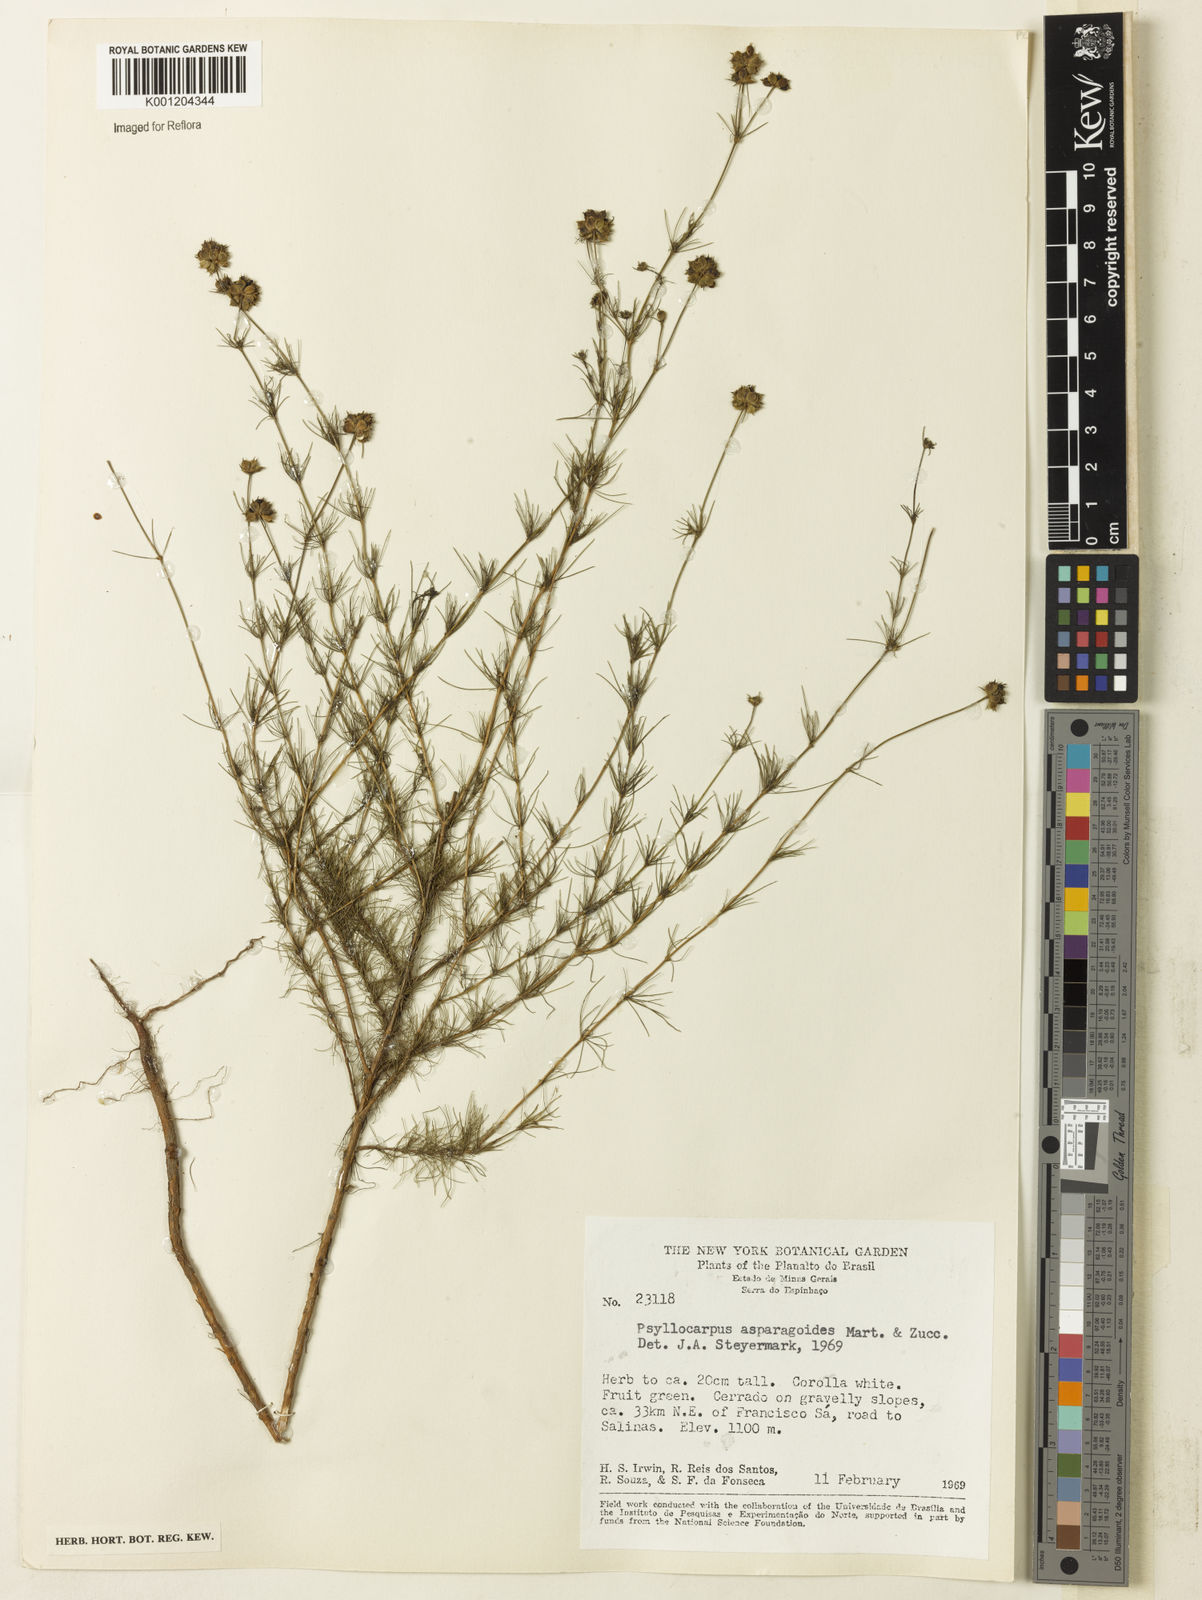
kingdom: Plantae
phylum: Tracheophyta
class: Magnoliopsida
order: Gentianales
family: Rubiaceae
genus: Psyllocarpus
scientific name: Psyllocarpus asparagoides
